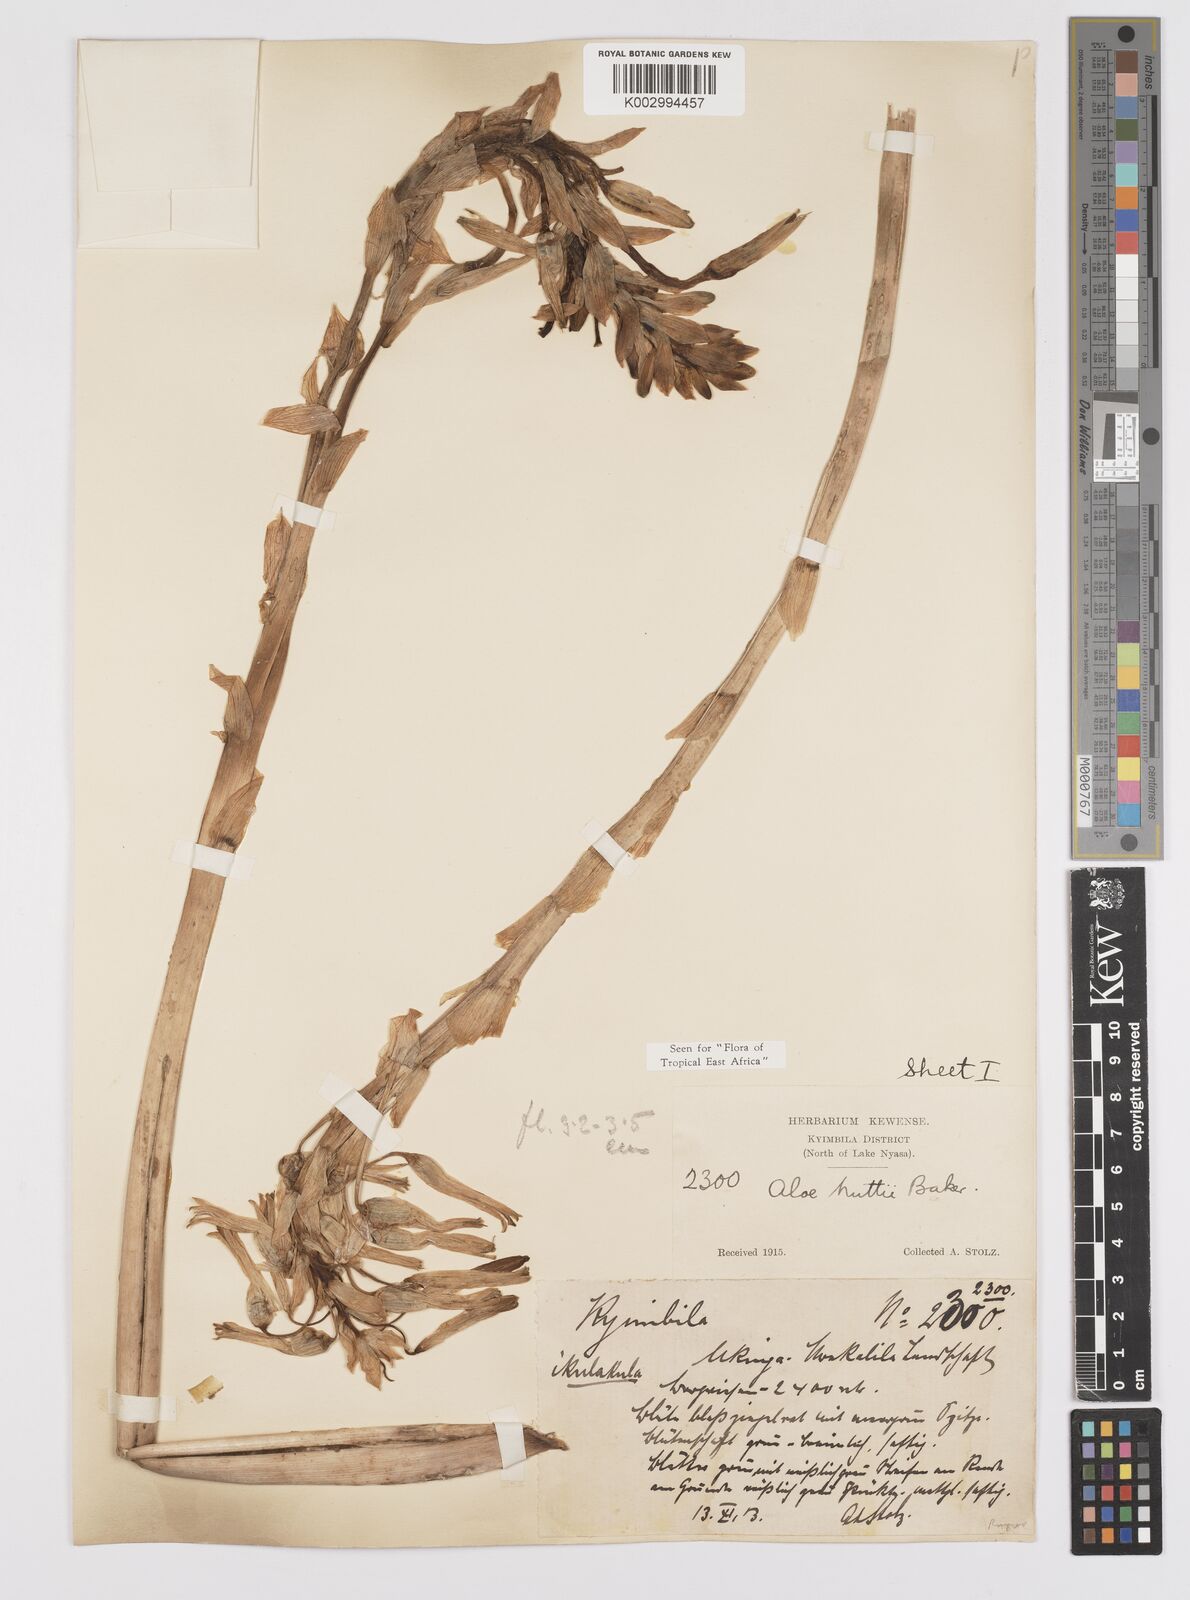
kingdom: Plantae
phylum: Tracheophyta
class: Liliopsida
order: Asparagales
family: Asphodelaceae
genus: Aloe
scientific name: Aloe nuttii
